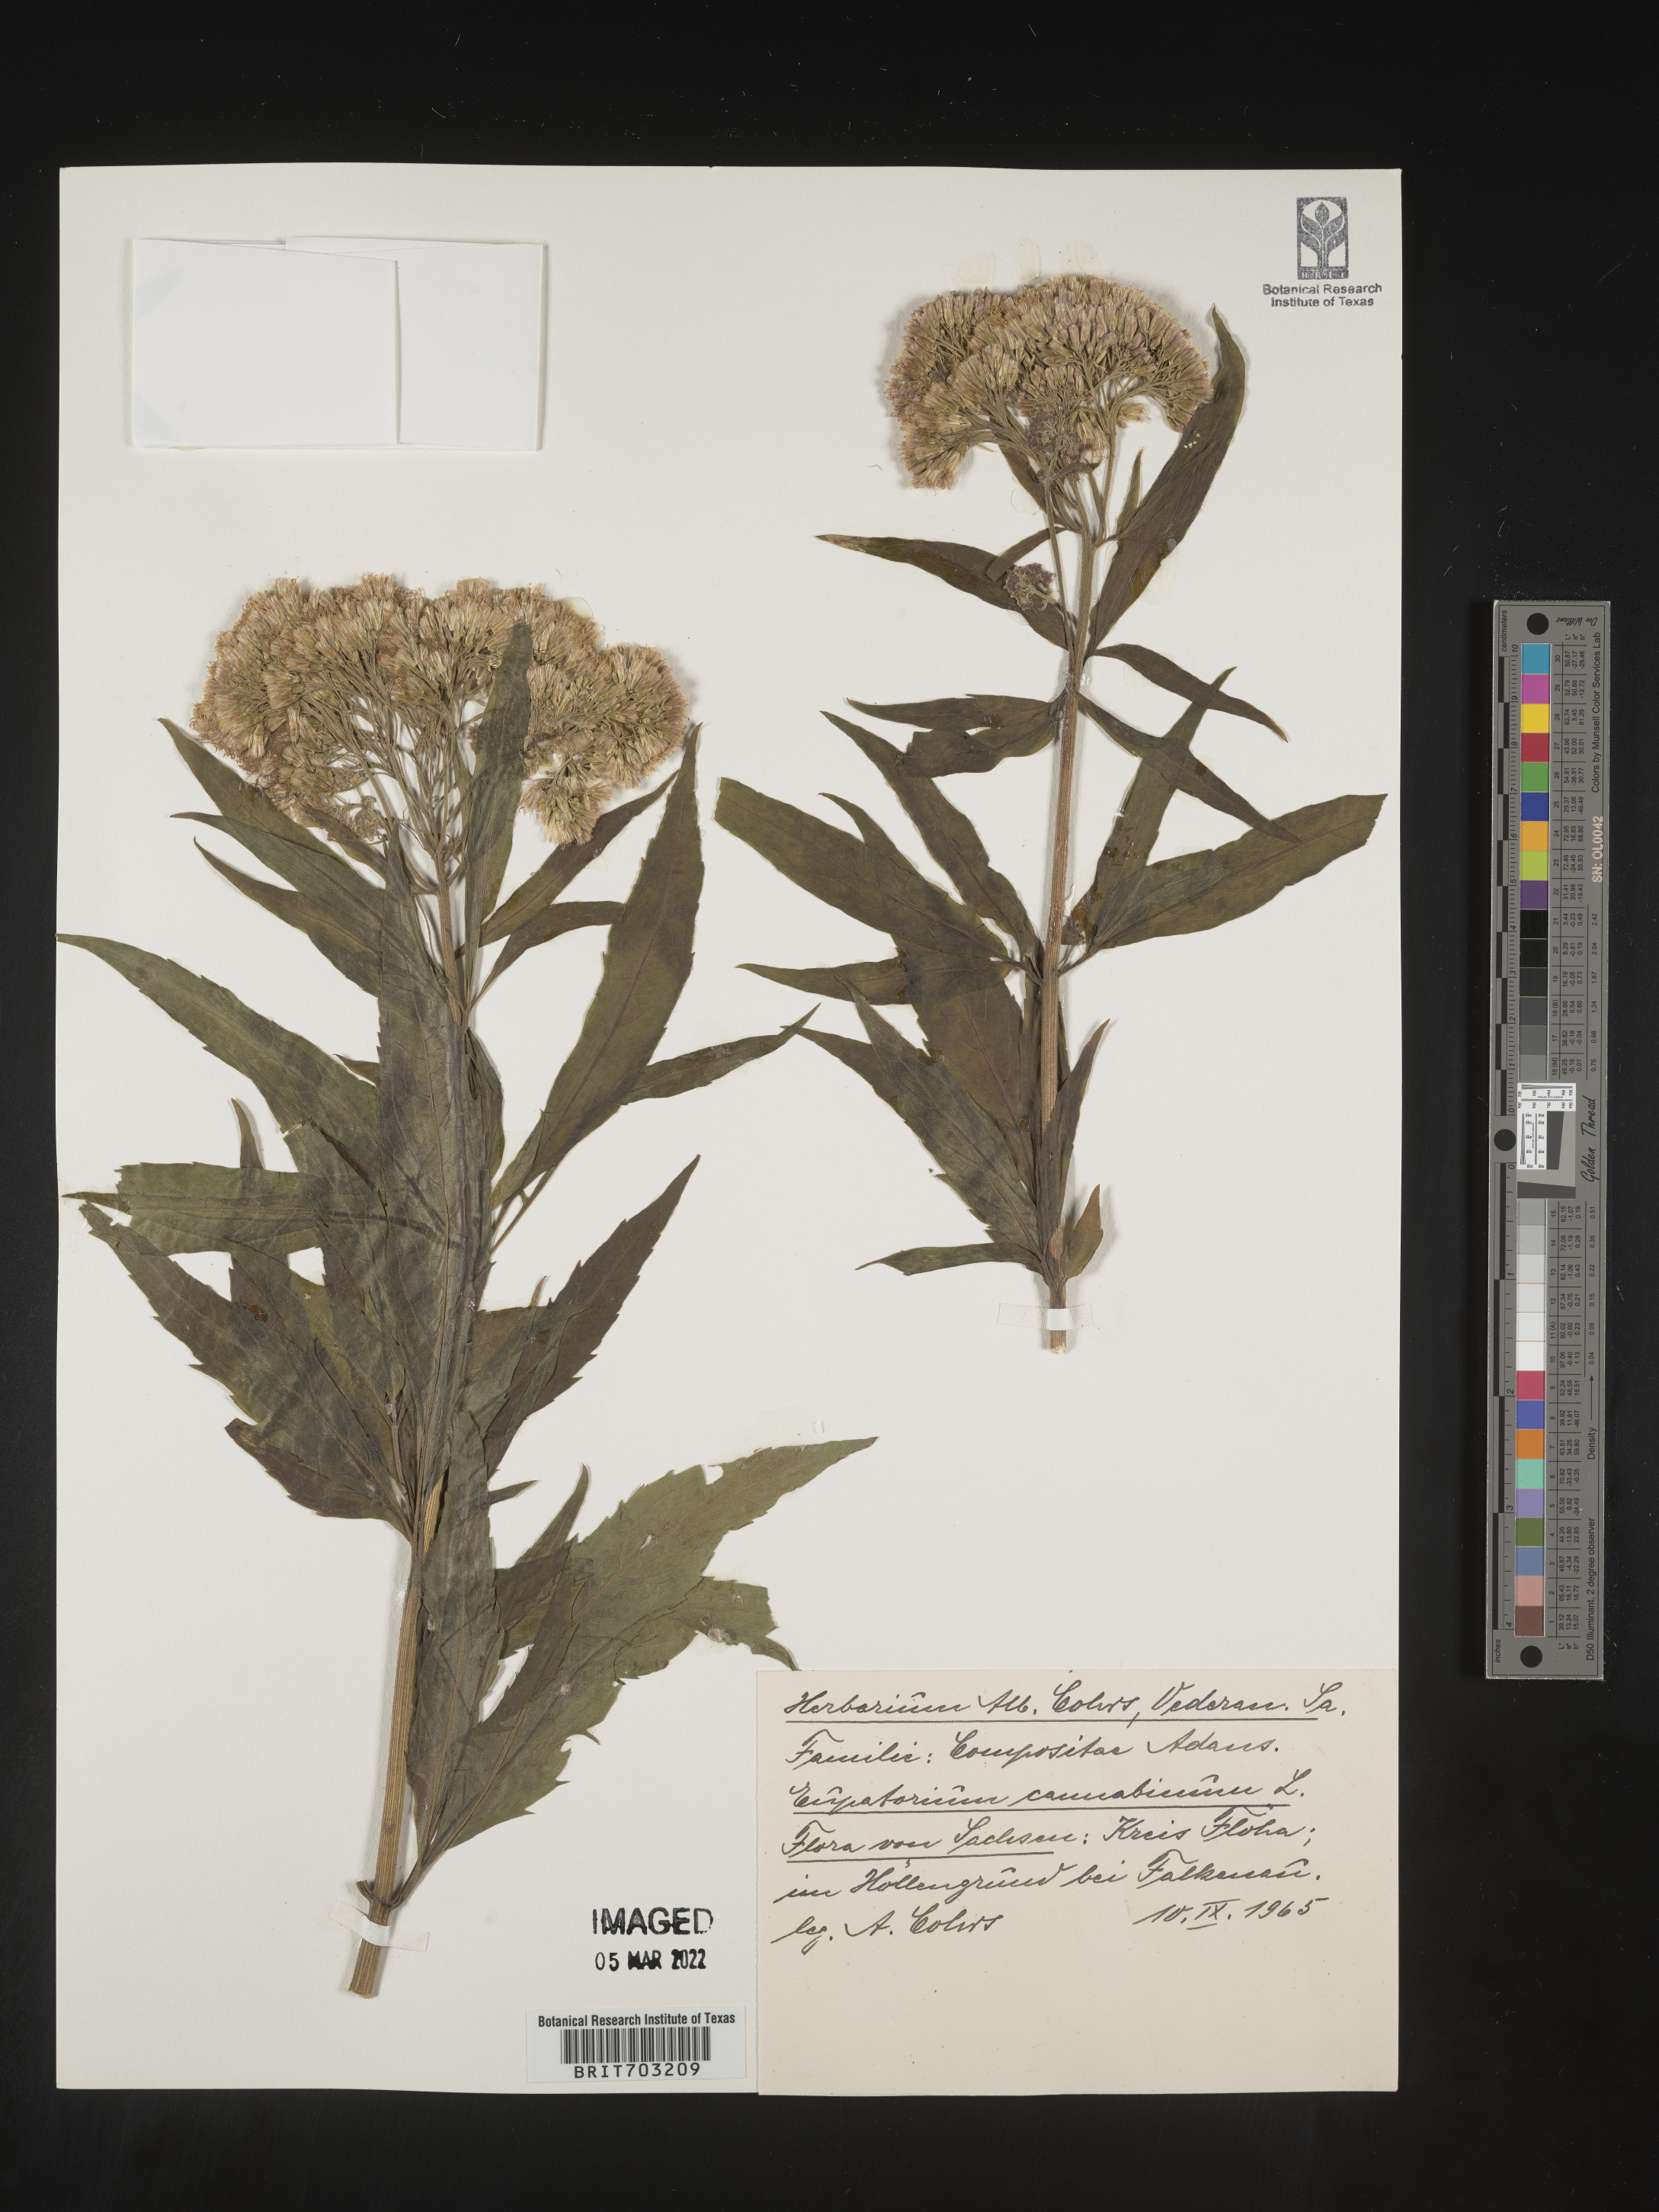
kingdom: Plantae
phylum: Tracheophyta
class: Magnoliopsida
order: Asterales
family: Asteraceae
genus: Eupatorium
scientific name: Eupatorium
